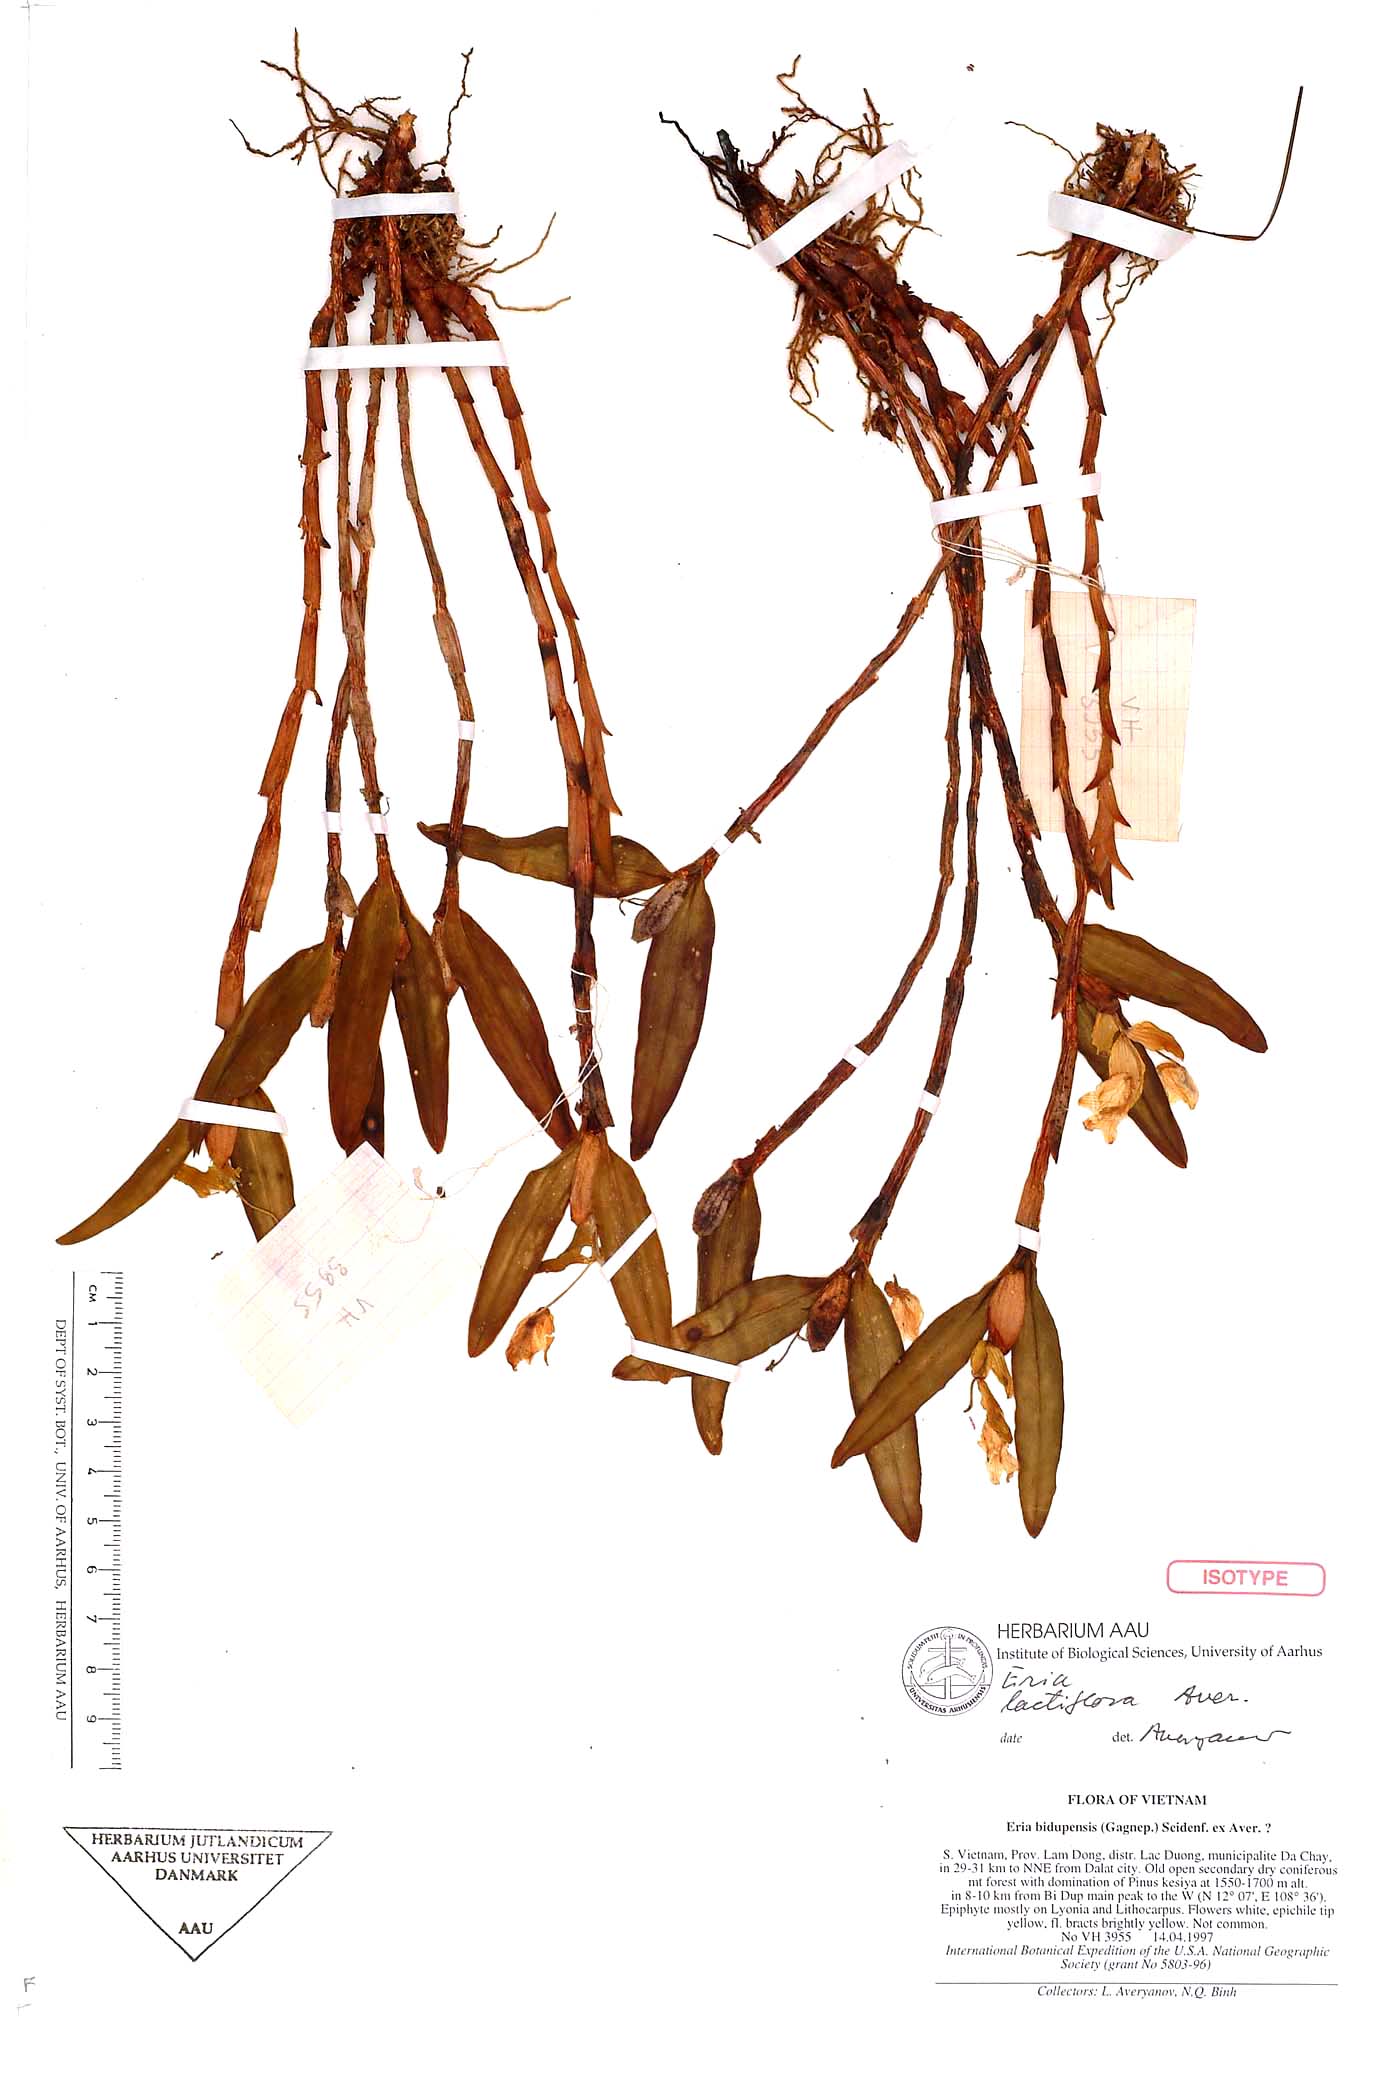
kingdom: Plantae
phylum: Tracheophyta
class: Liliopsida
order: Asparagales
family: Orchidaceae
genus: Cylindrolobus
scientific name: Cylindrolobus lactiflorus
